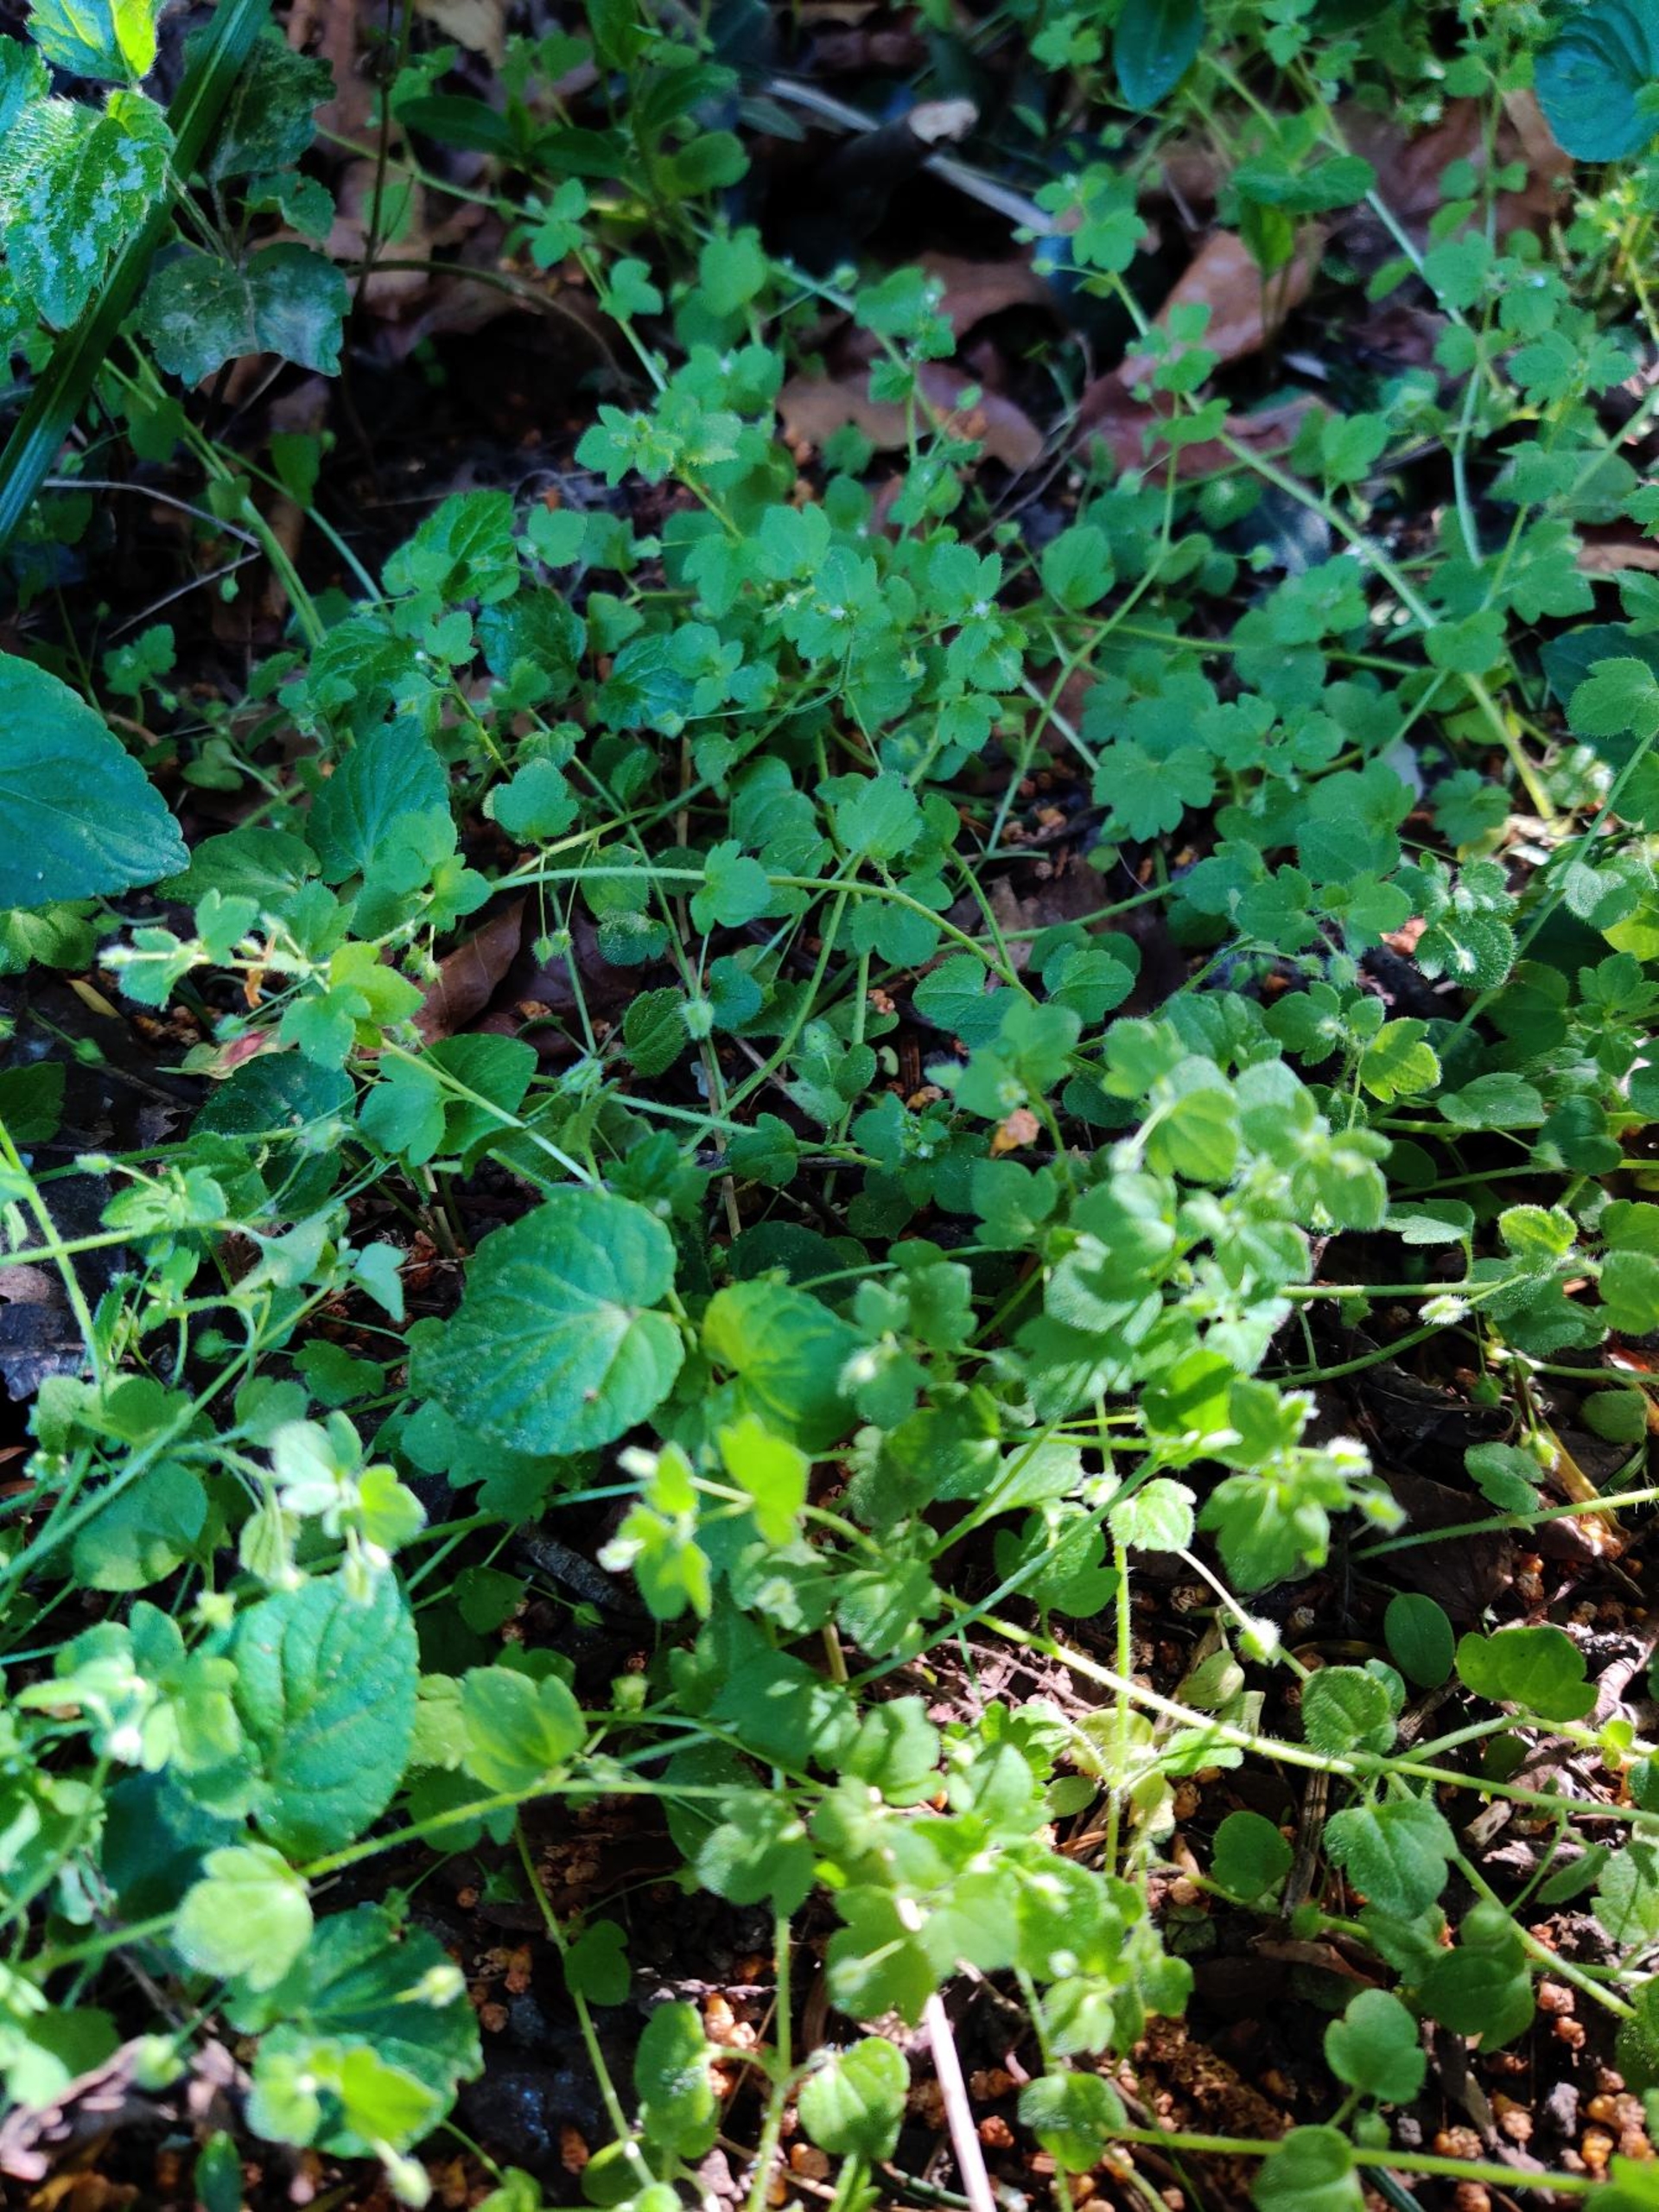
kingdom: Plantae
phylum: Tracheophyta
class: Magnoliopsida
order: Lamiales
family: Plantaginaceae
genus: Veronica
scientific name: Veronica hederifolia
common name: Vedbend-ærenpris
